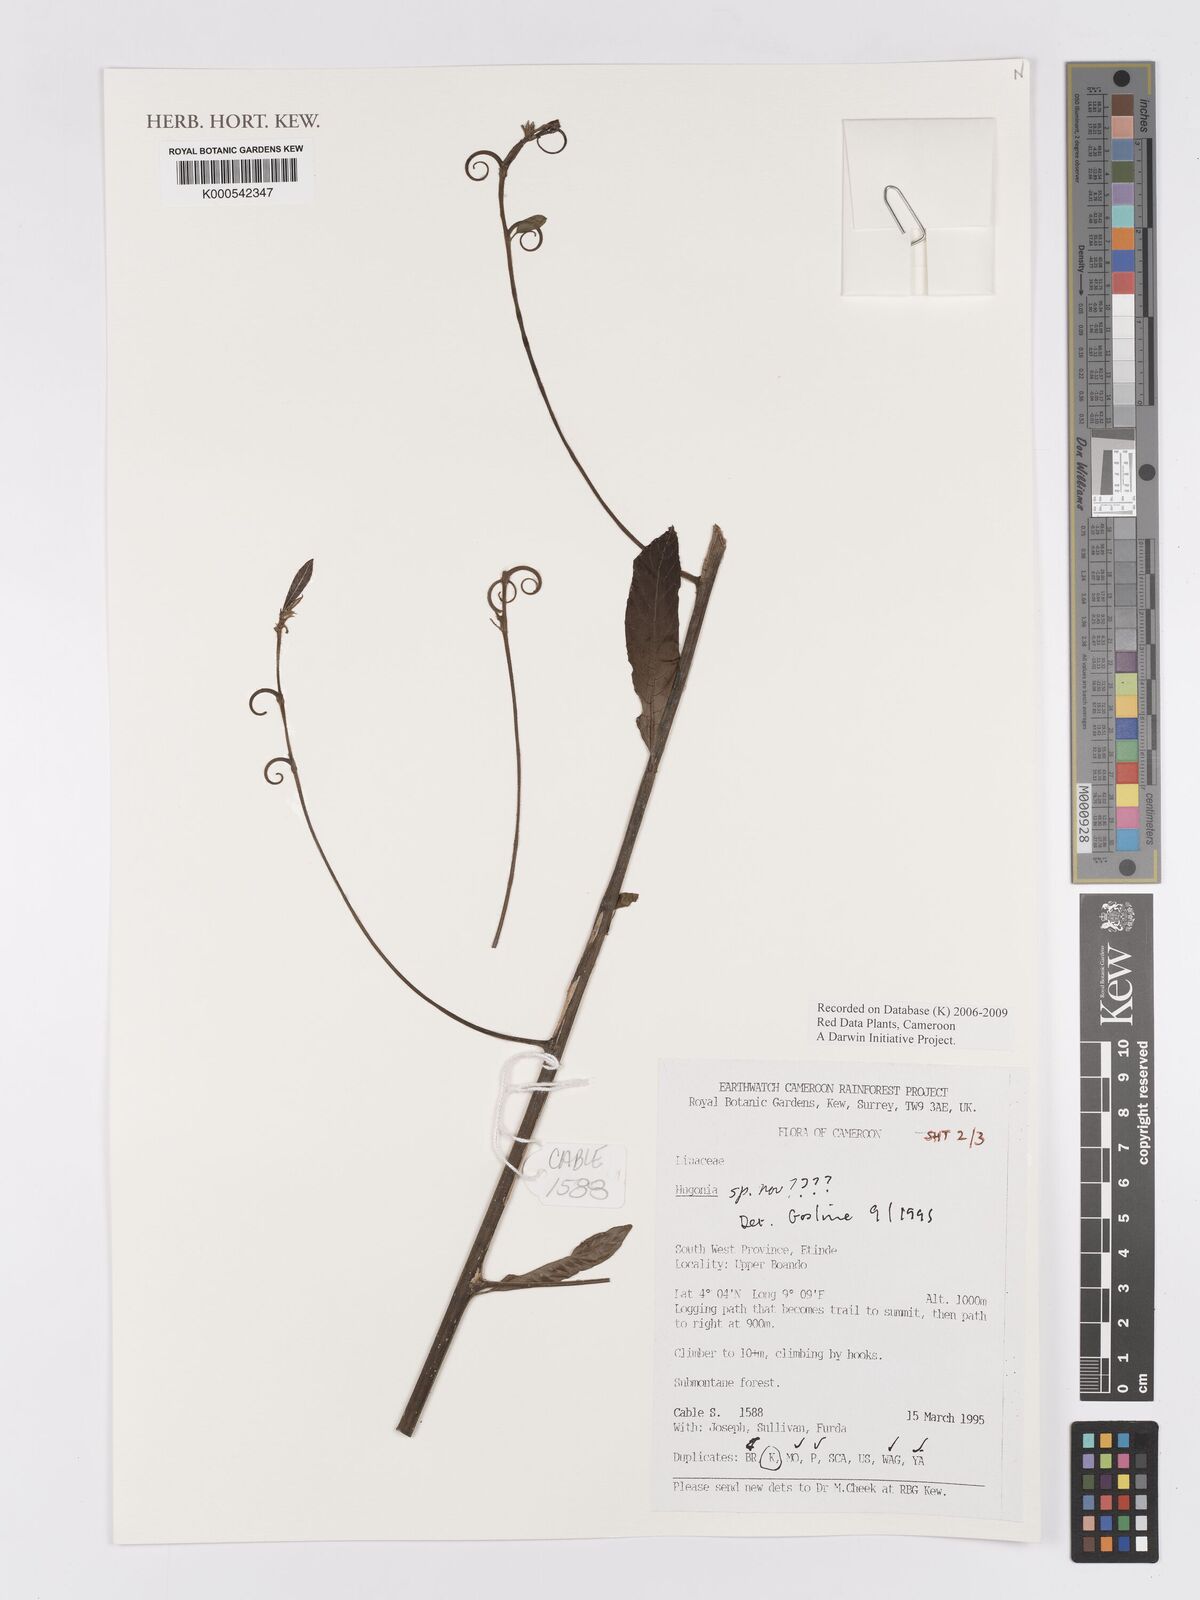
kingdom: Plantae
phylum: Tracheophyta
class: Magnoliopsida
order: Malpighiales
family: Linaceae
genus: Hugonia
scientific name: Hugonia
